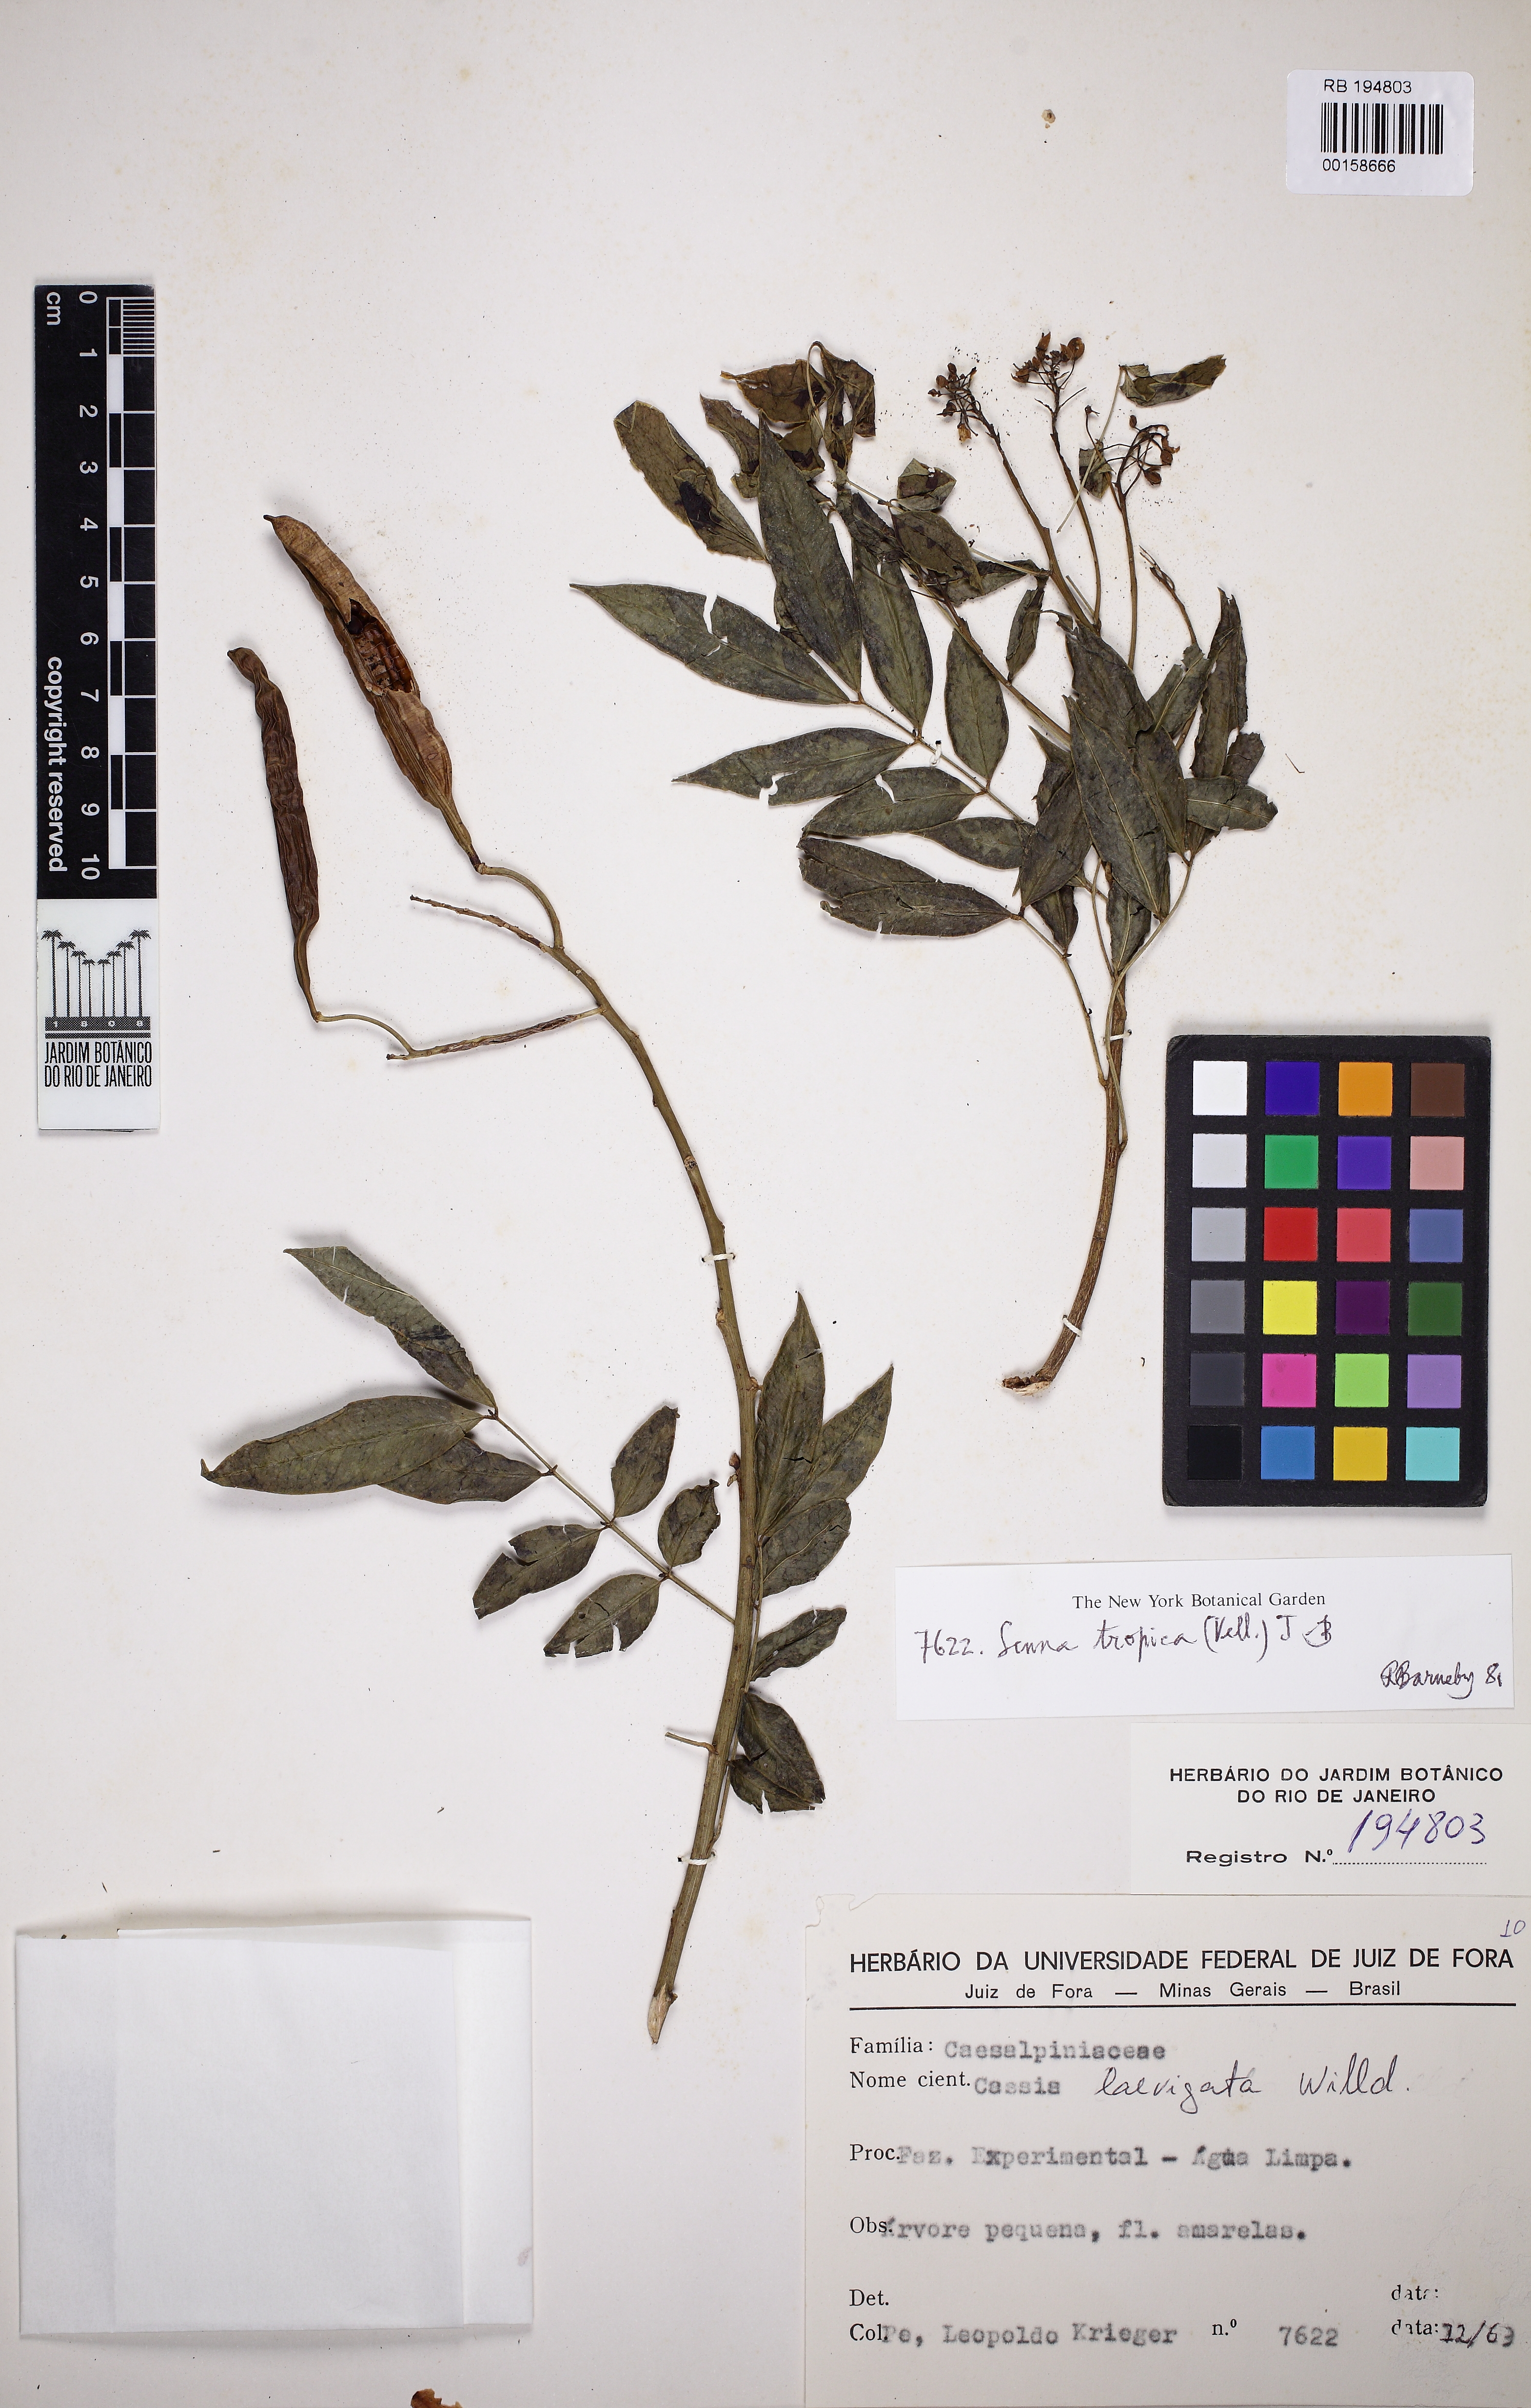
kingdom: Plantae
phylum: Tracheophyta
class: Magnoliopsida
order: Fabales
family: Fabaceae
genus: Senna
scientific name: Senna tropica
